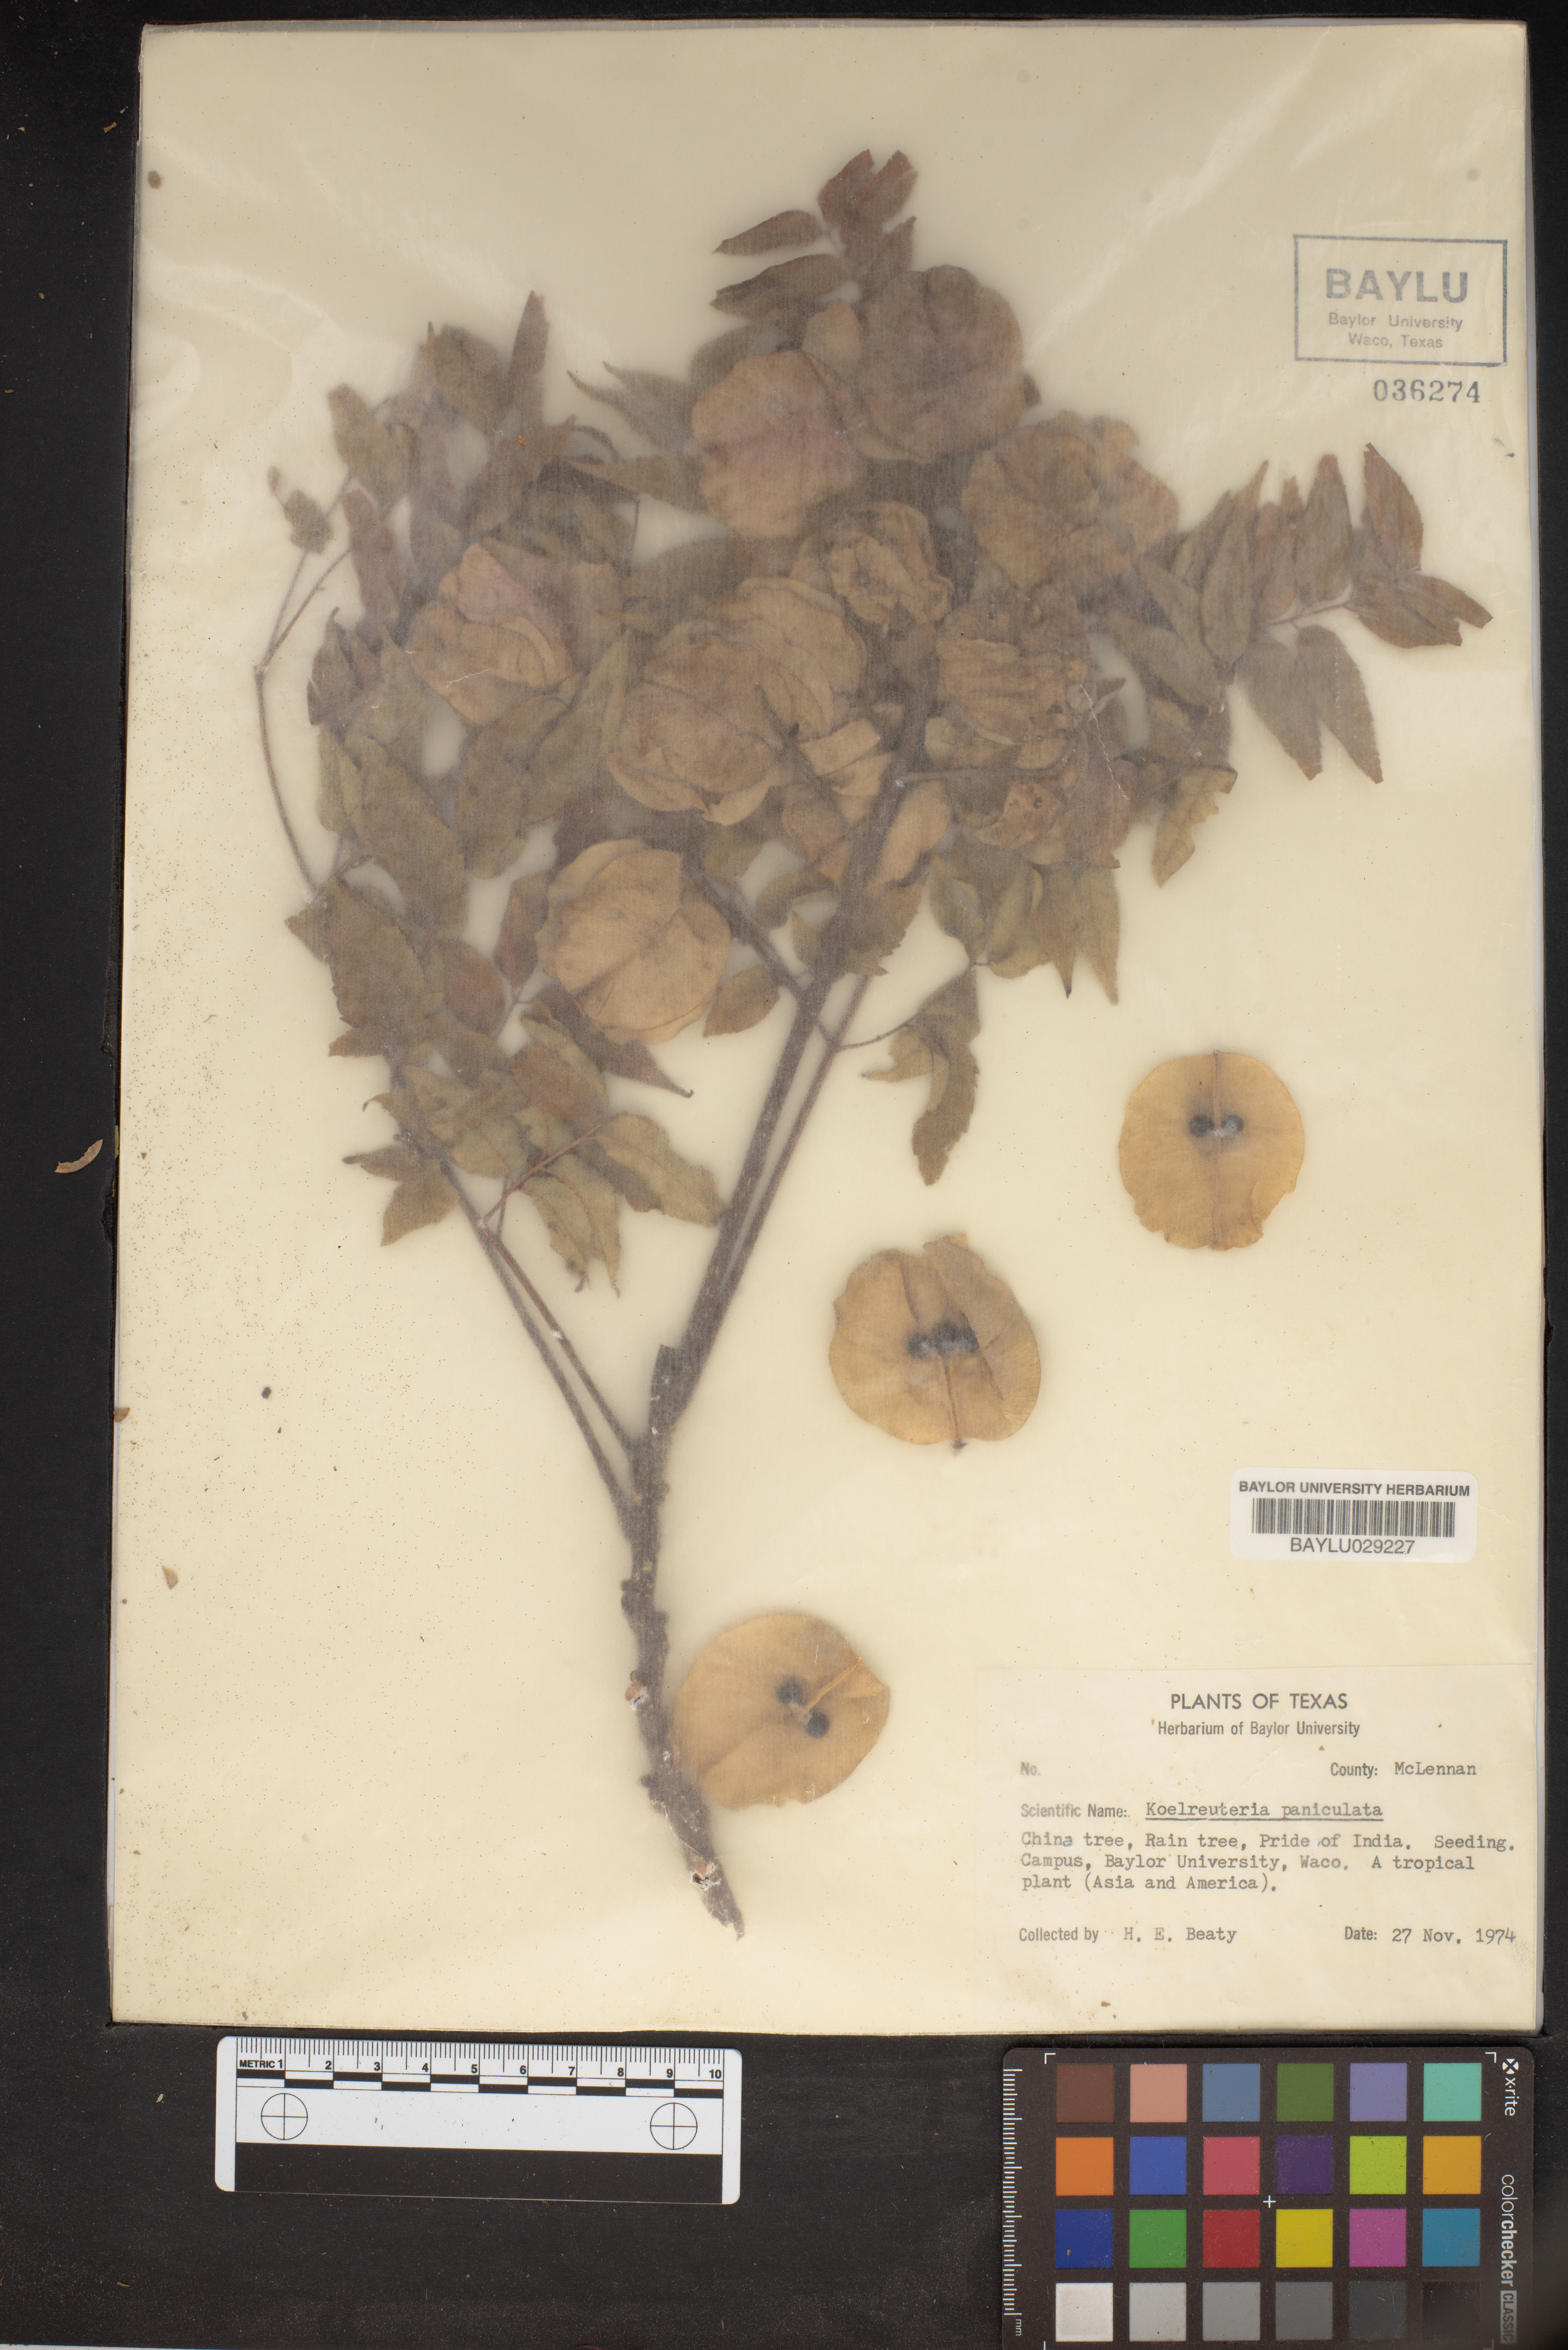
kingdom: Plantae
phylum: Tracheophyta
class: Magnoliopsida
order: Sapindales
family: Sapindaceae
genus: Koelreuteria
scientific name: Koelreuteria paniculata
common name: Pride-of-india
